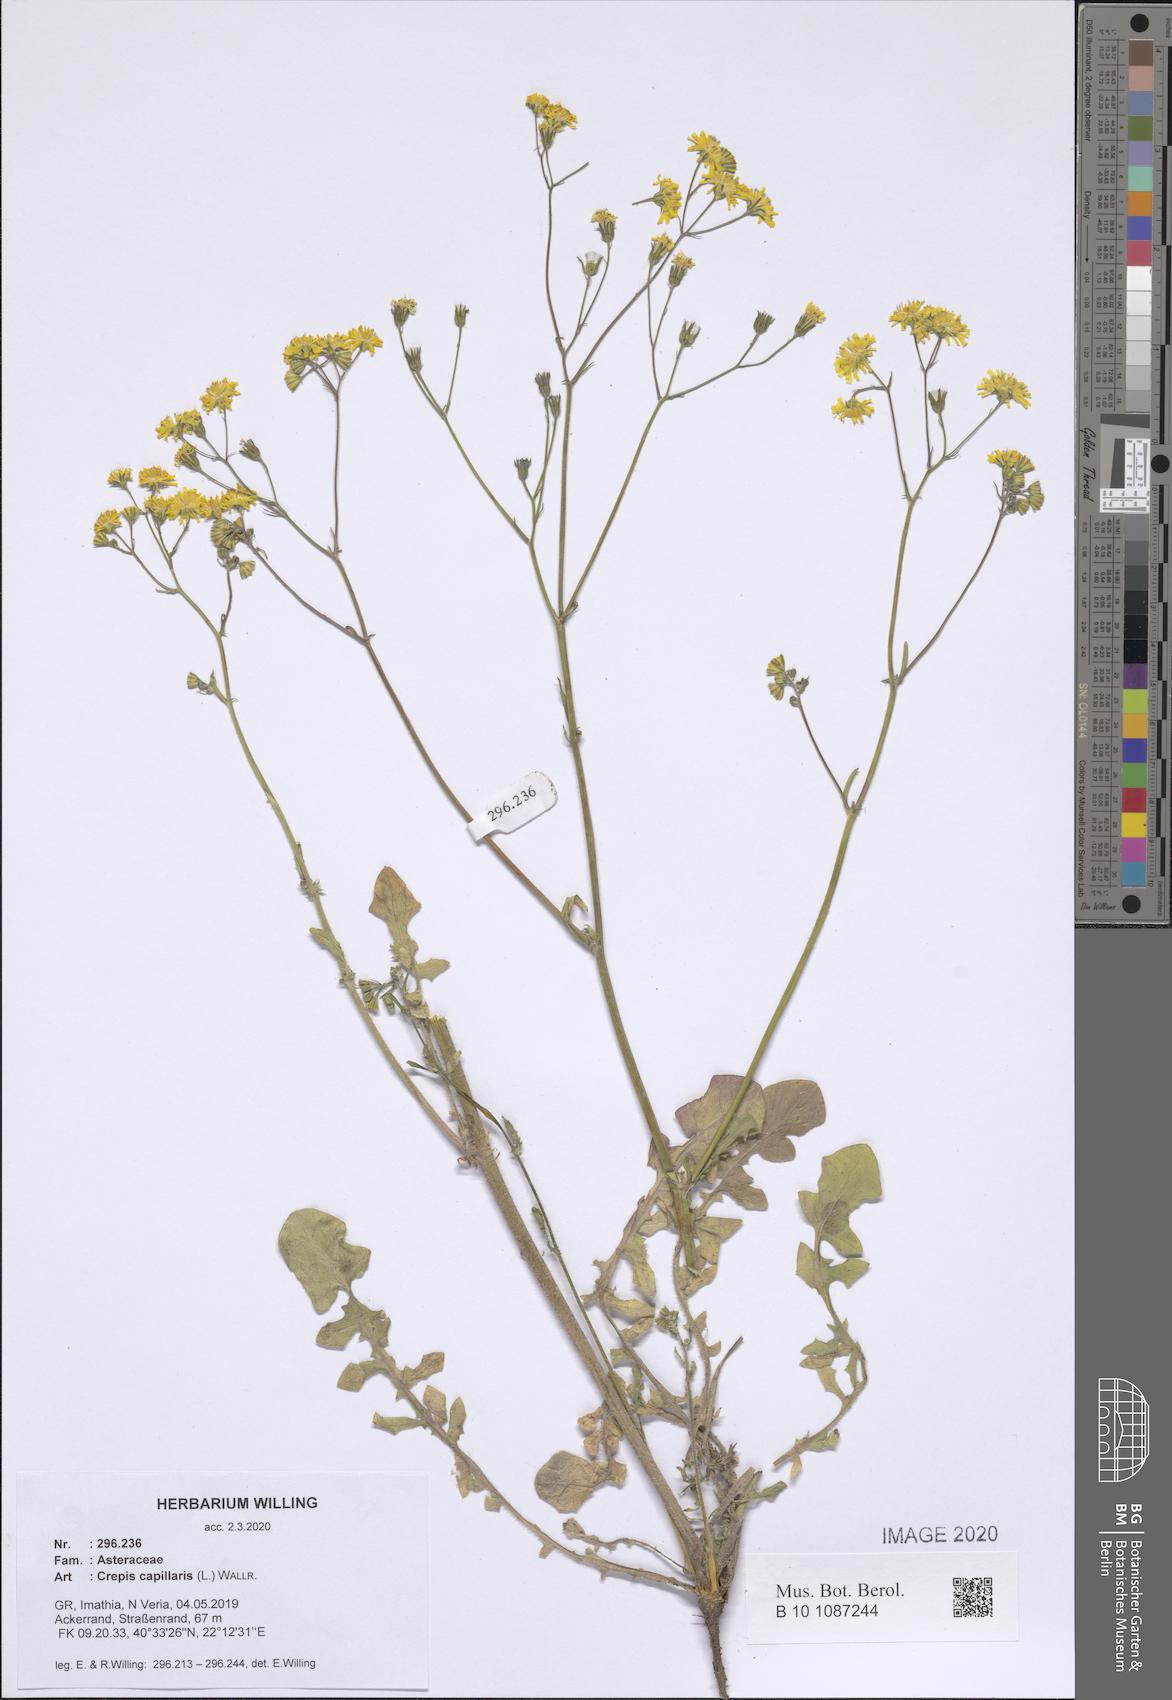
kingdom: Plantae
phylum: Tracheophyta
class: Magnoliopsida
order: Asterales
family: Asteraceae
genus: Crepis
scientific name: Crepis capillaris
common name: Smooth hawksbeard
